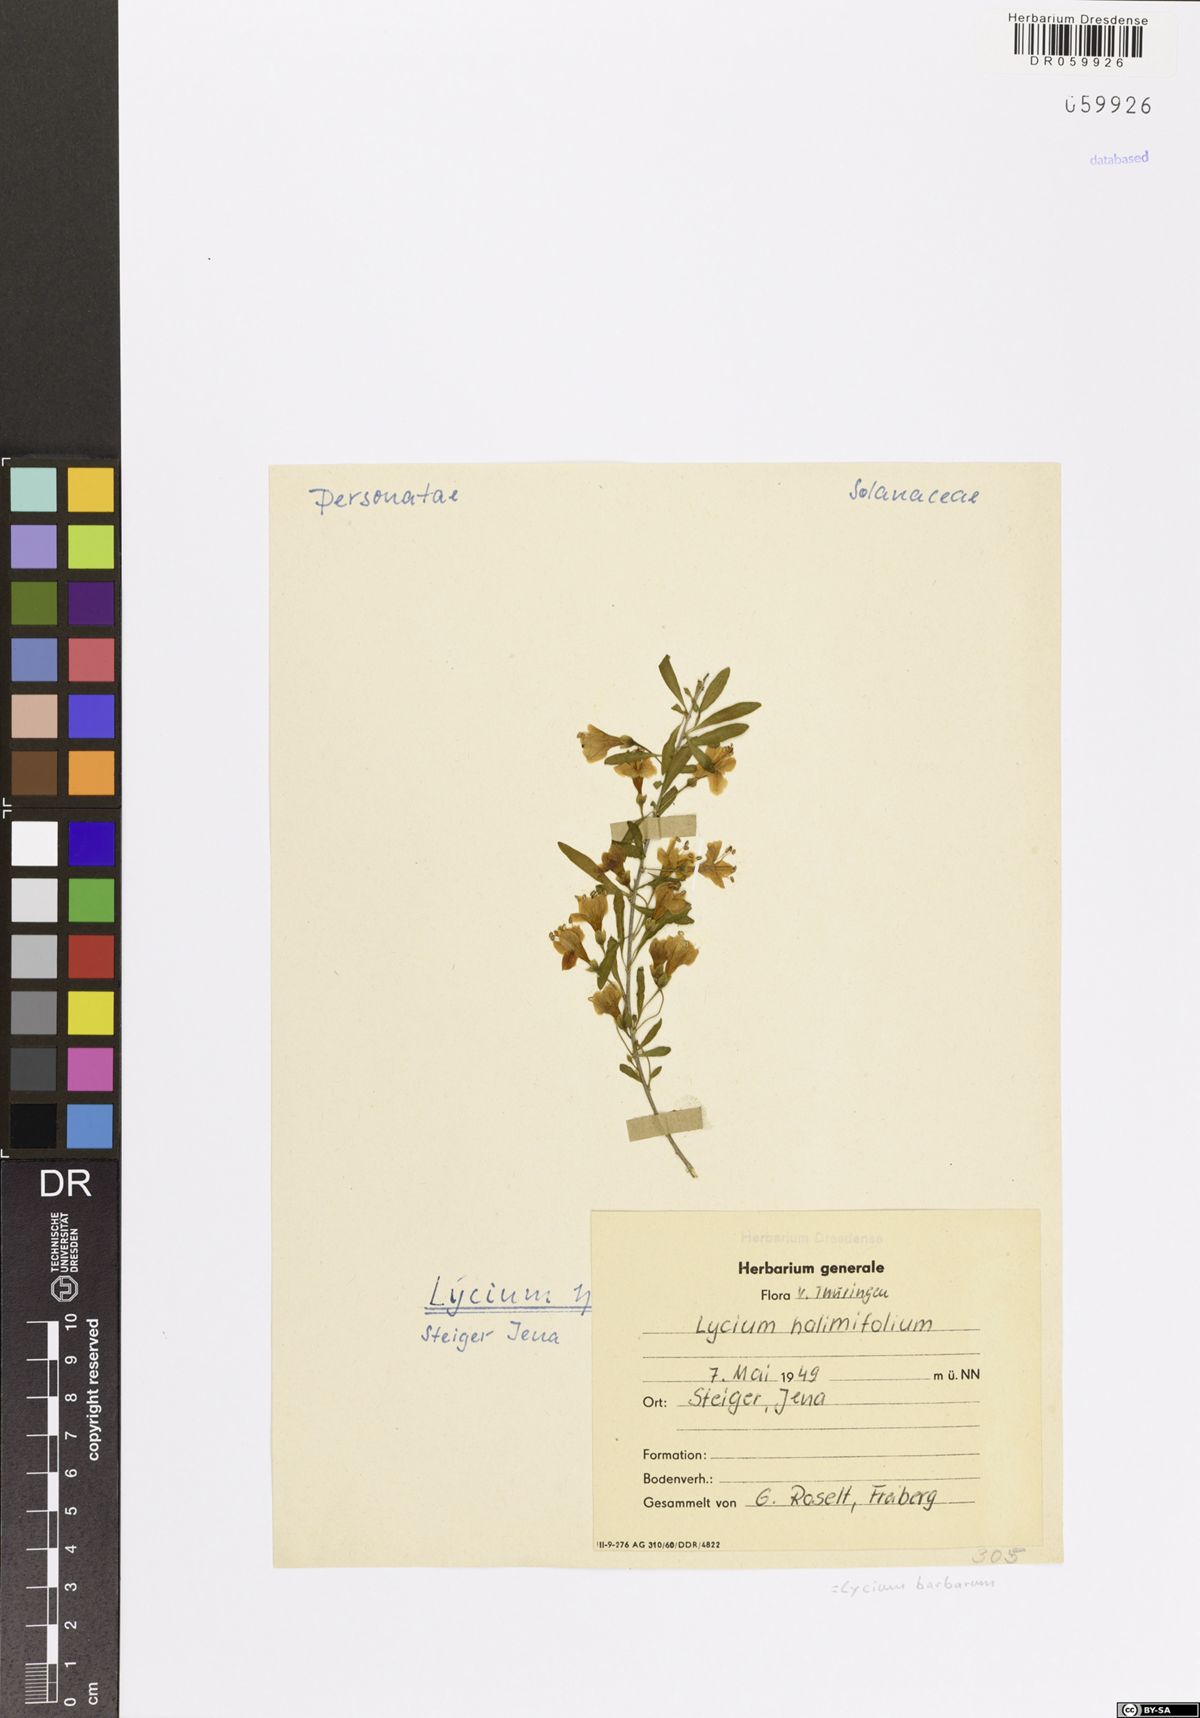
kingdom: Plantae
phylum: Tracheophyta
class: Magnoliopsida
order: Solanales
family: Solanaceae
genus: Lycium
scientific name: Lycium barbarum
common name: Duke of argyll's teaplant
